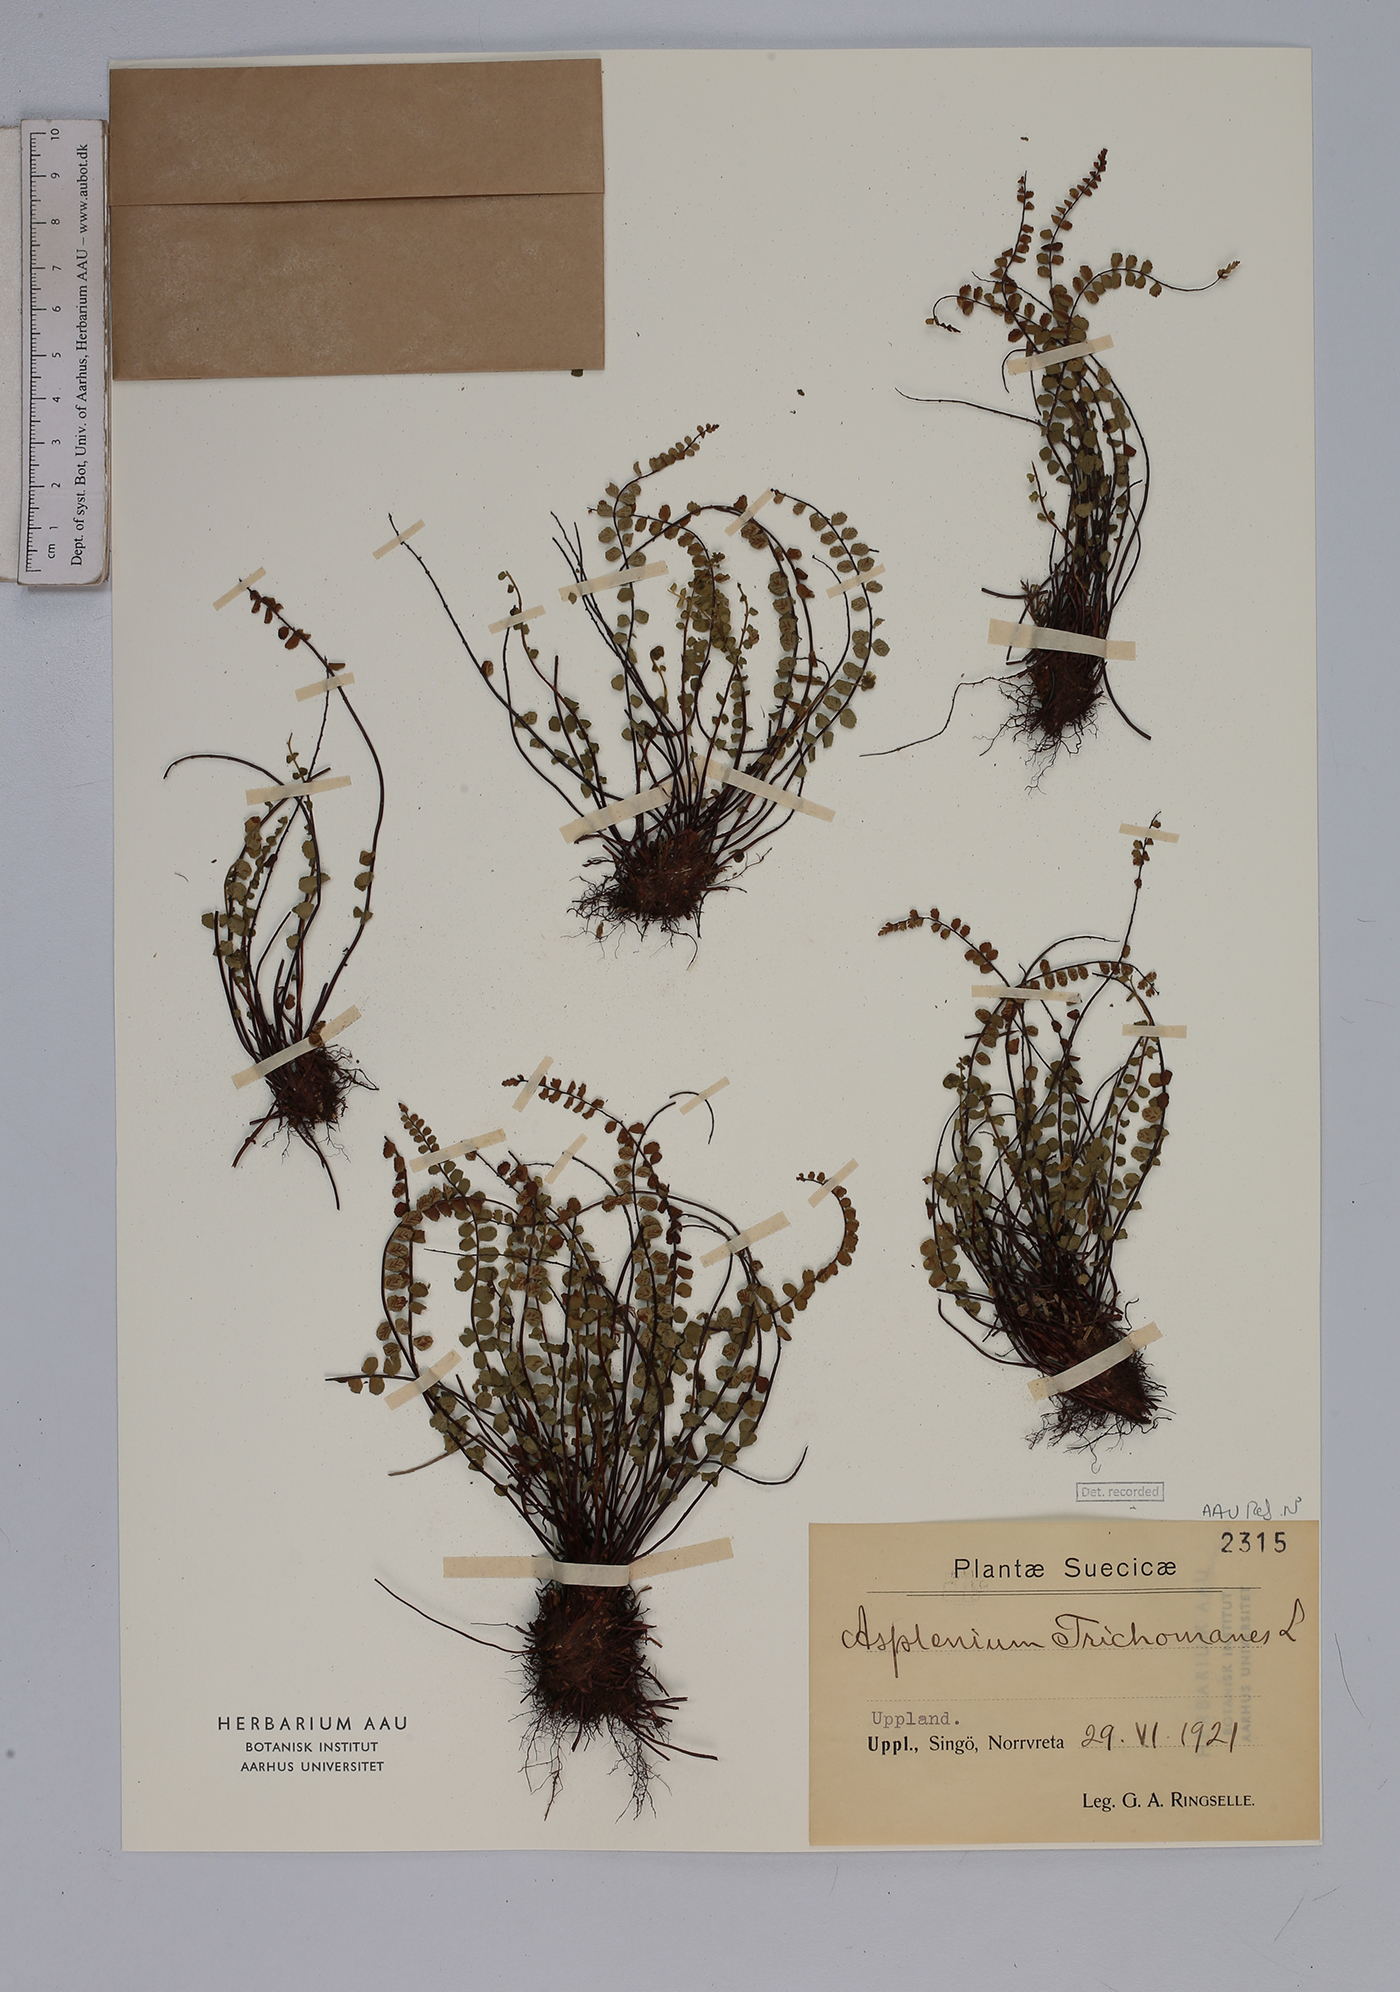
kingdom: Plantae
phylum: Tracheophyta
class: Polypodiopsida
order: Polypodiales
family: Aspleniaceae
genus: Asplenium
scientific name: Asplenium trichomanes
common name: Maidenhair spleenwort
